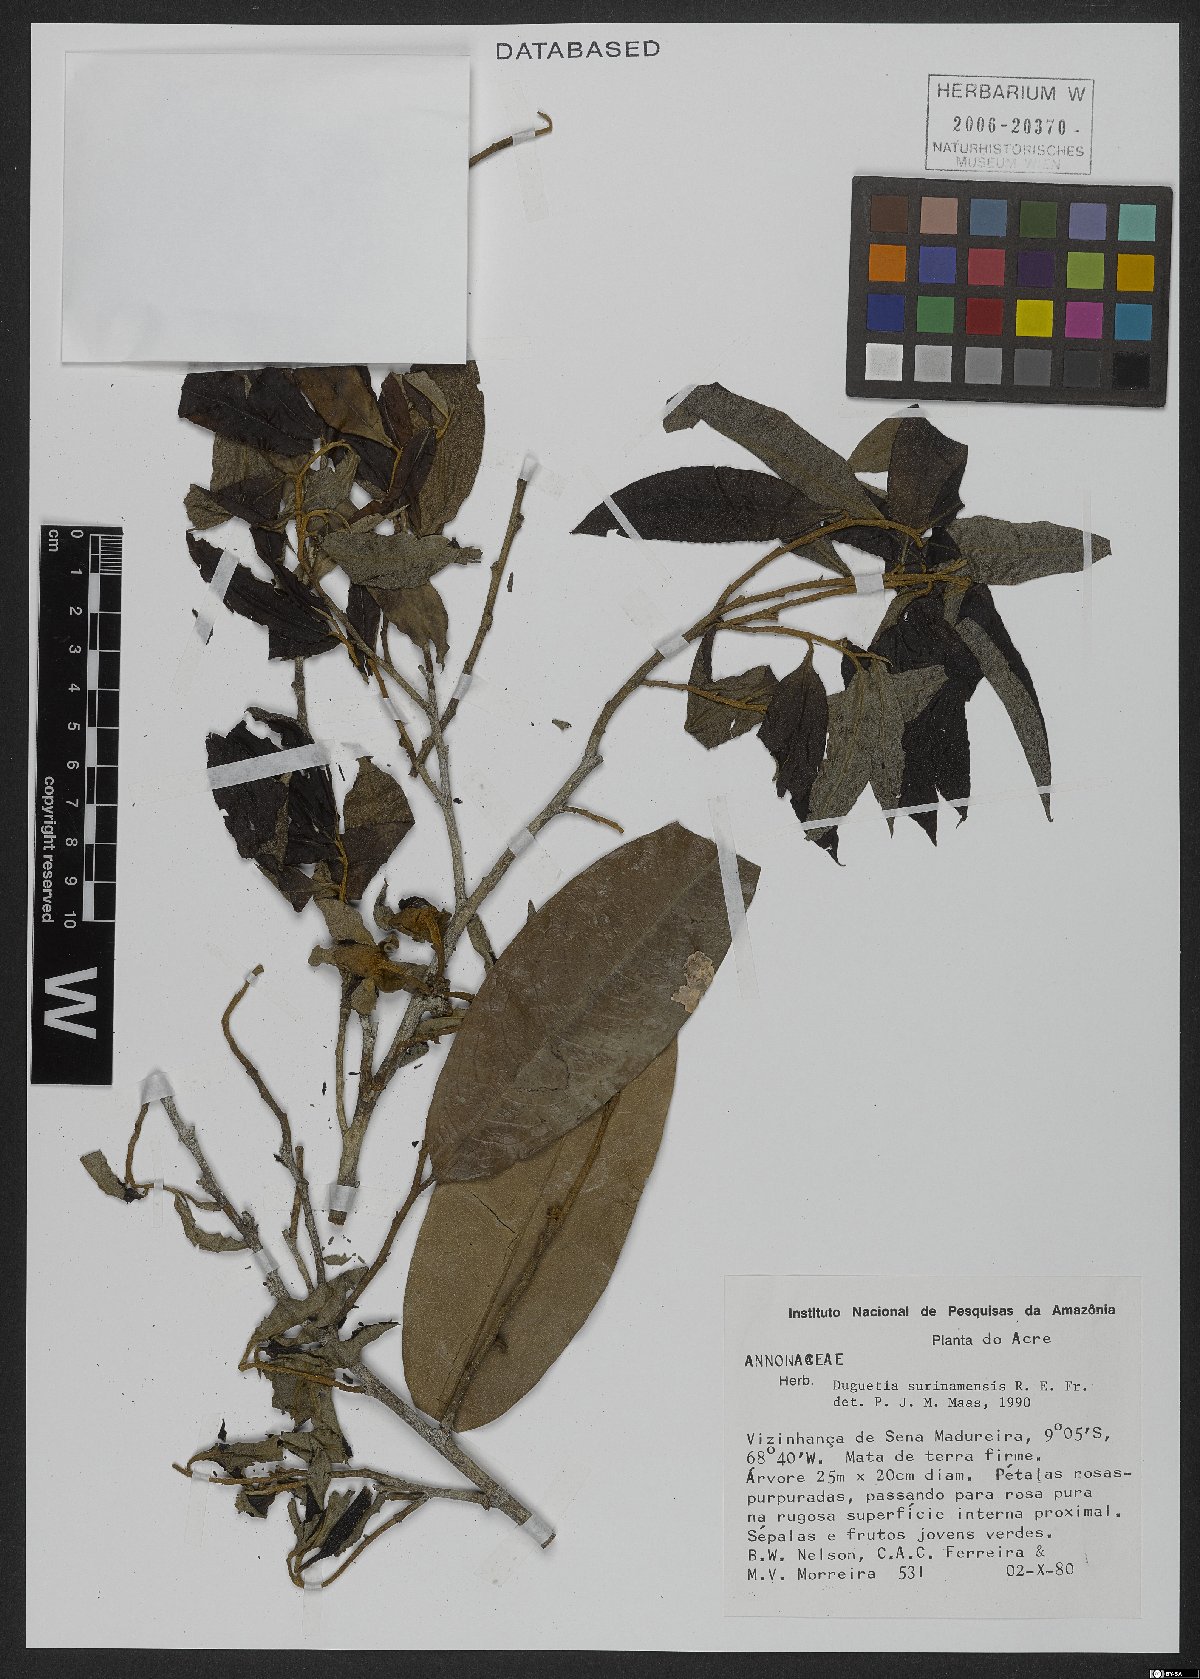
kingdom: Plantae
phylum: Tracheophyta
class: Magnoliopsida
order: Magnoliales
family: Annonaceae
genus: Duguetia
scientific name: Duguetia surinamensis
